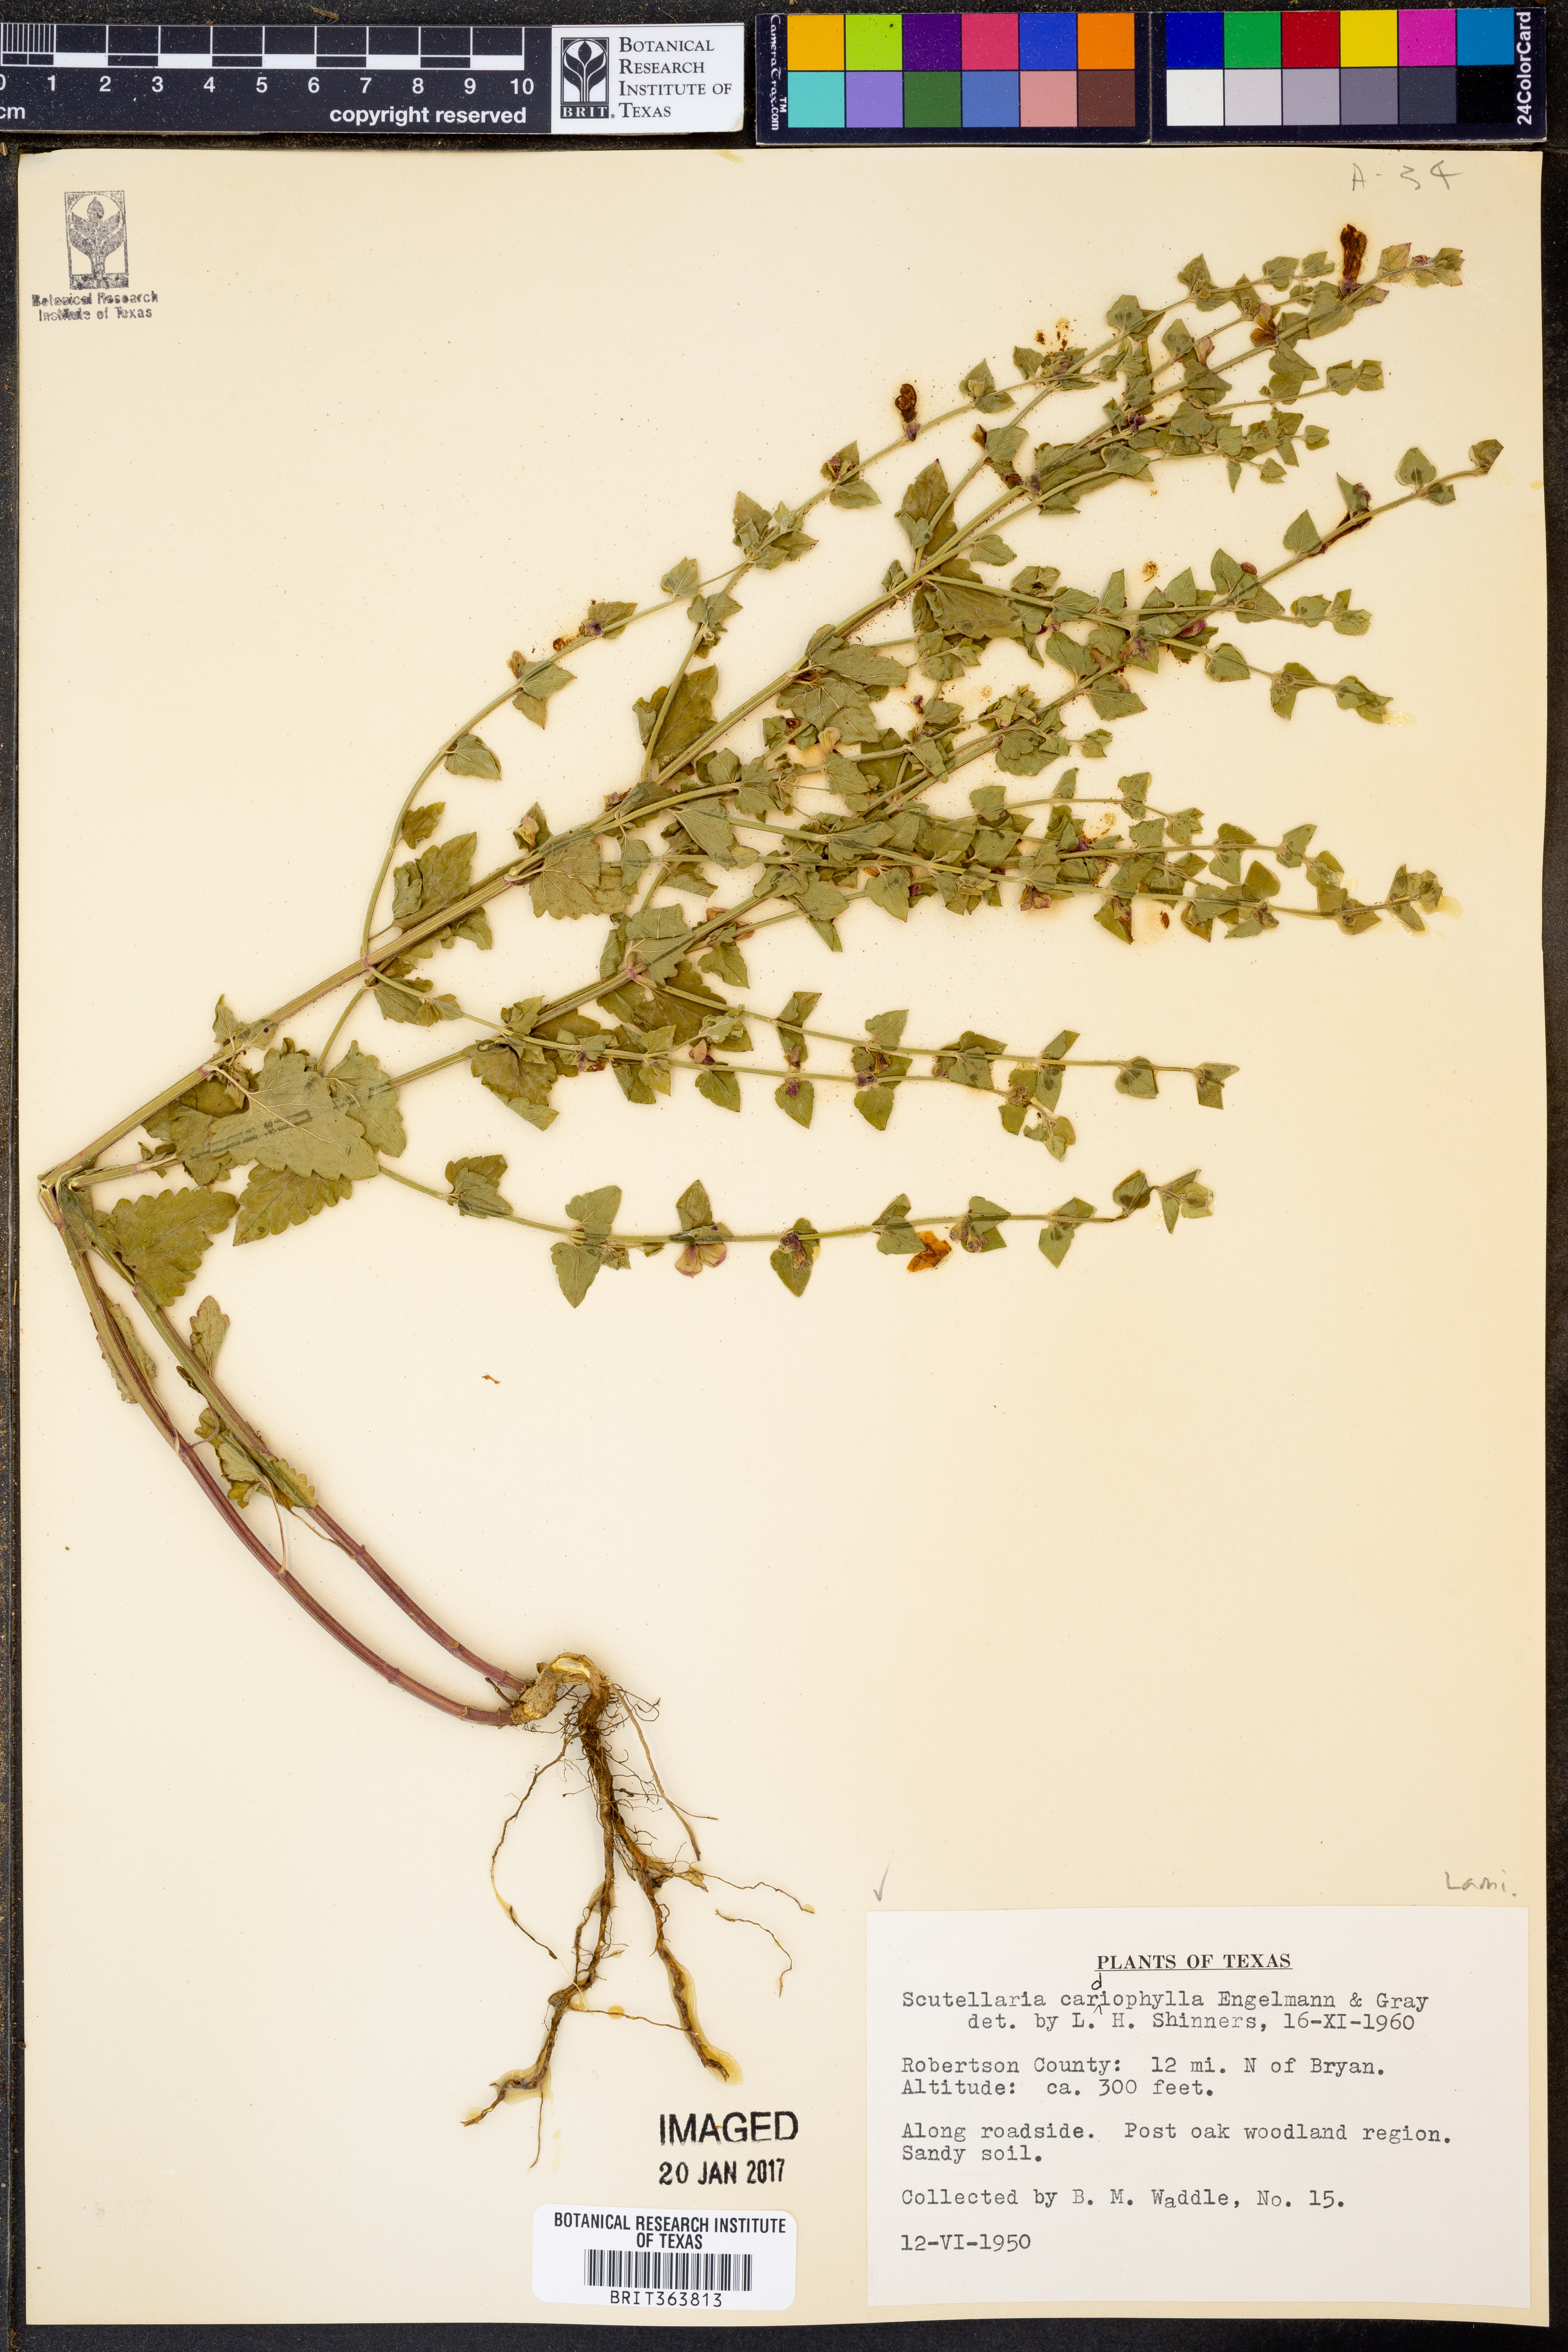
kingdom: Plantae
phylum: Tracheophyta
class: Magnoliopsida
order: Lamiales
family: Lamiaceae
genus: Scutellaria
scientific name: Scutellaria cardiophylla
